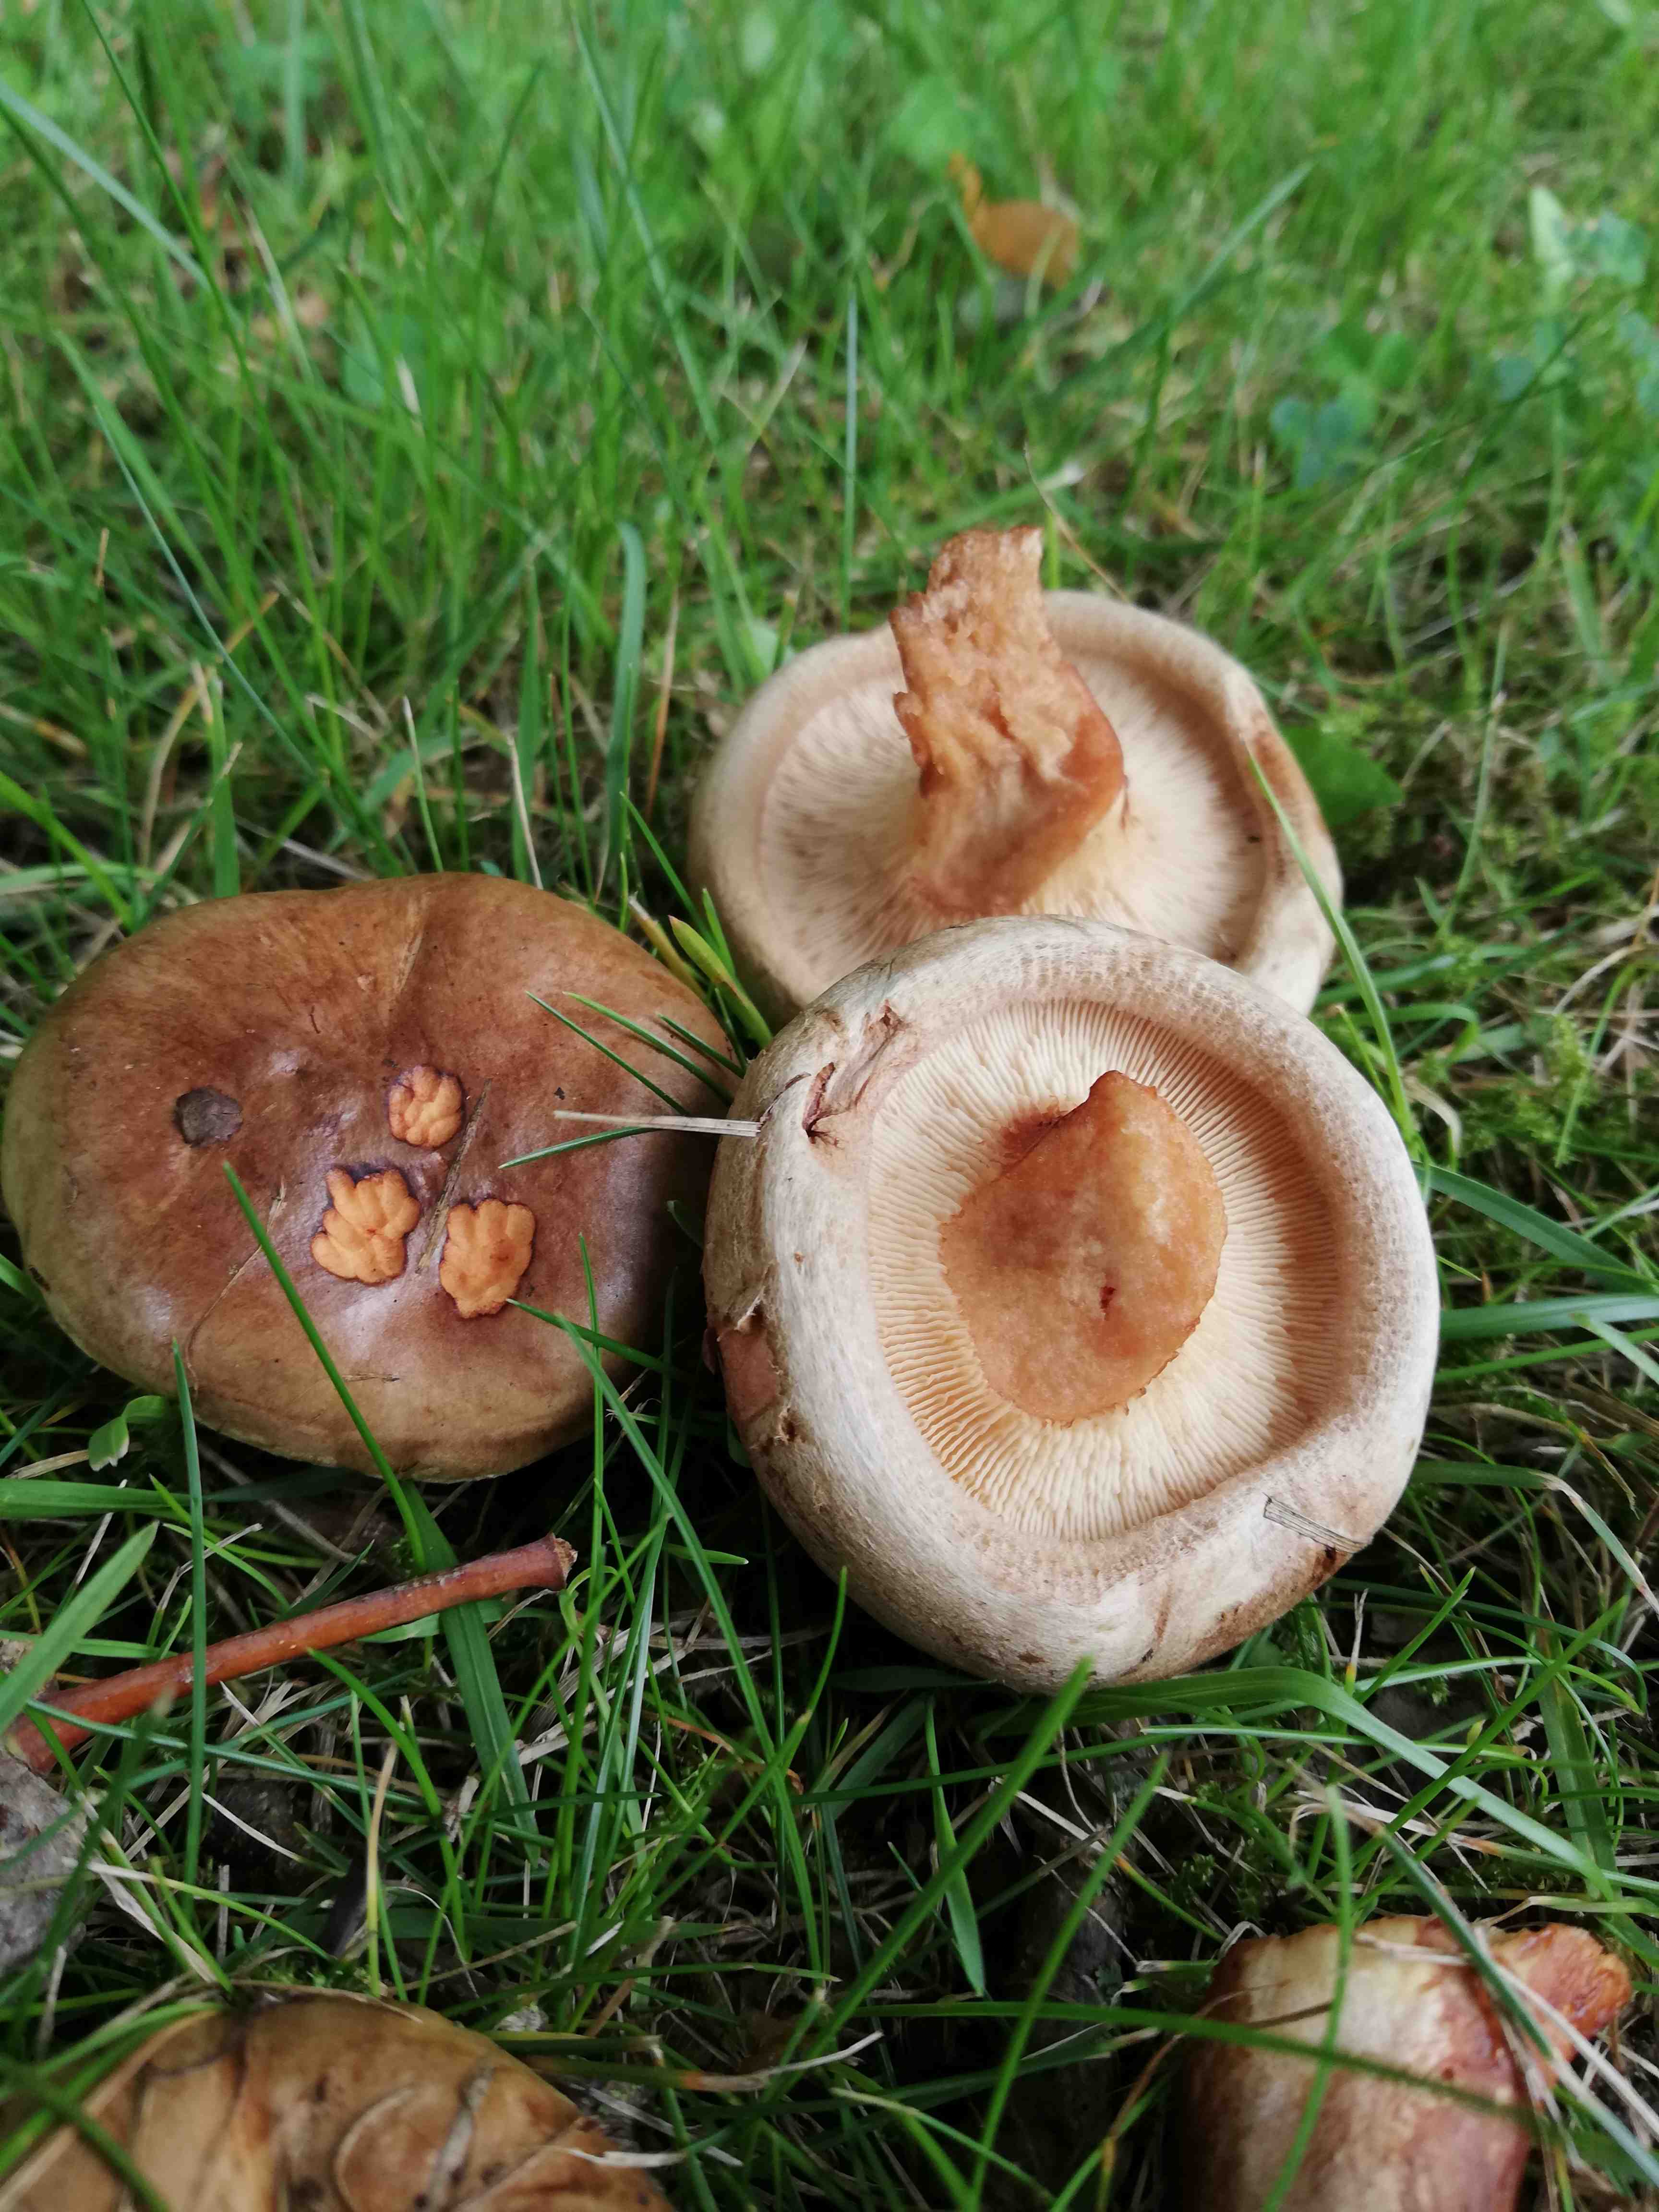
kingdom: Fungi
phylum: Basidiomycota
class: Agaricomycetes
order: Boletales
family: Paxillaceae
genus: Paxillus
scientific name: Paxillus
